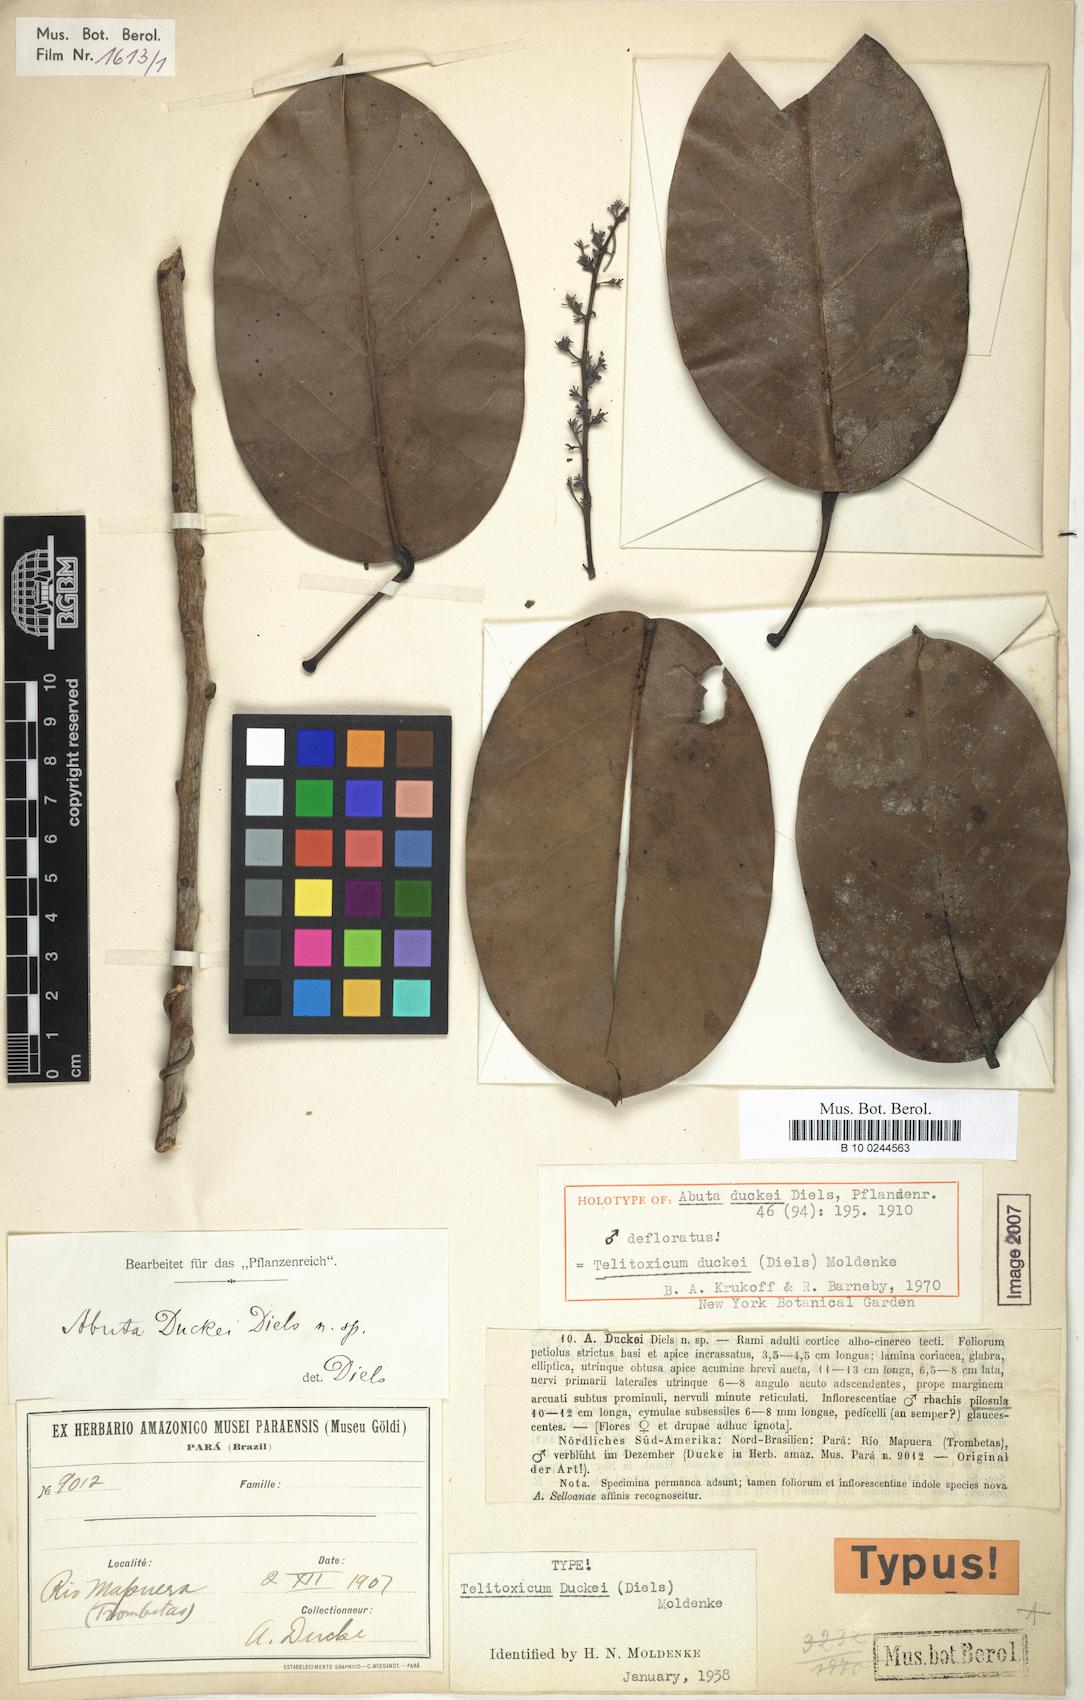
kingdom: Plantae
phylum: Tracheophyta
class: Magnoliopsida
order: Ranunculales
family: Menispermaceae
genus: Telitoxicum
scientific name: Telitoxicum duckei
